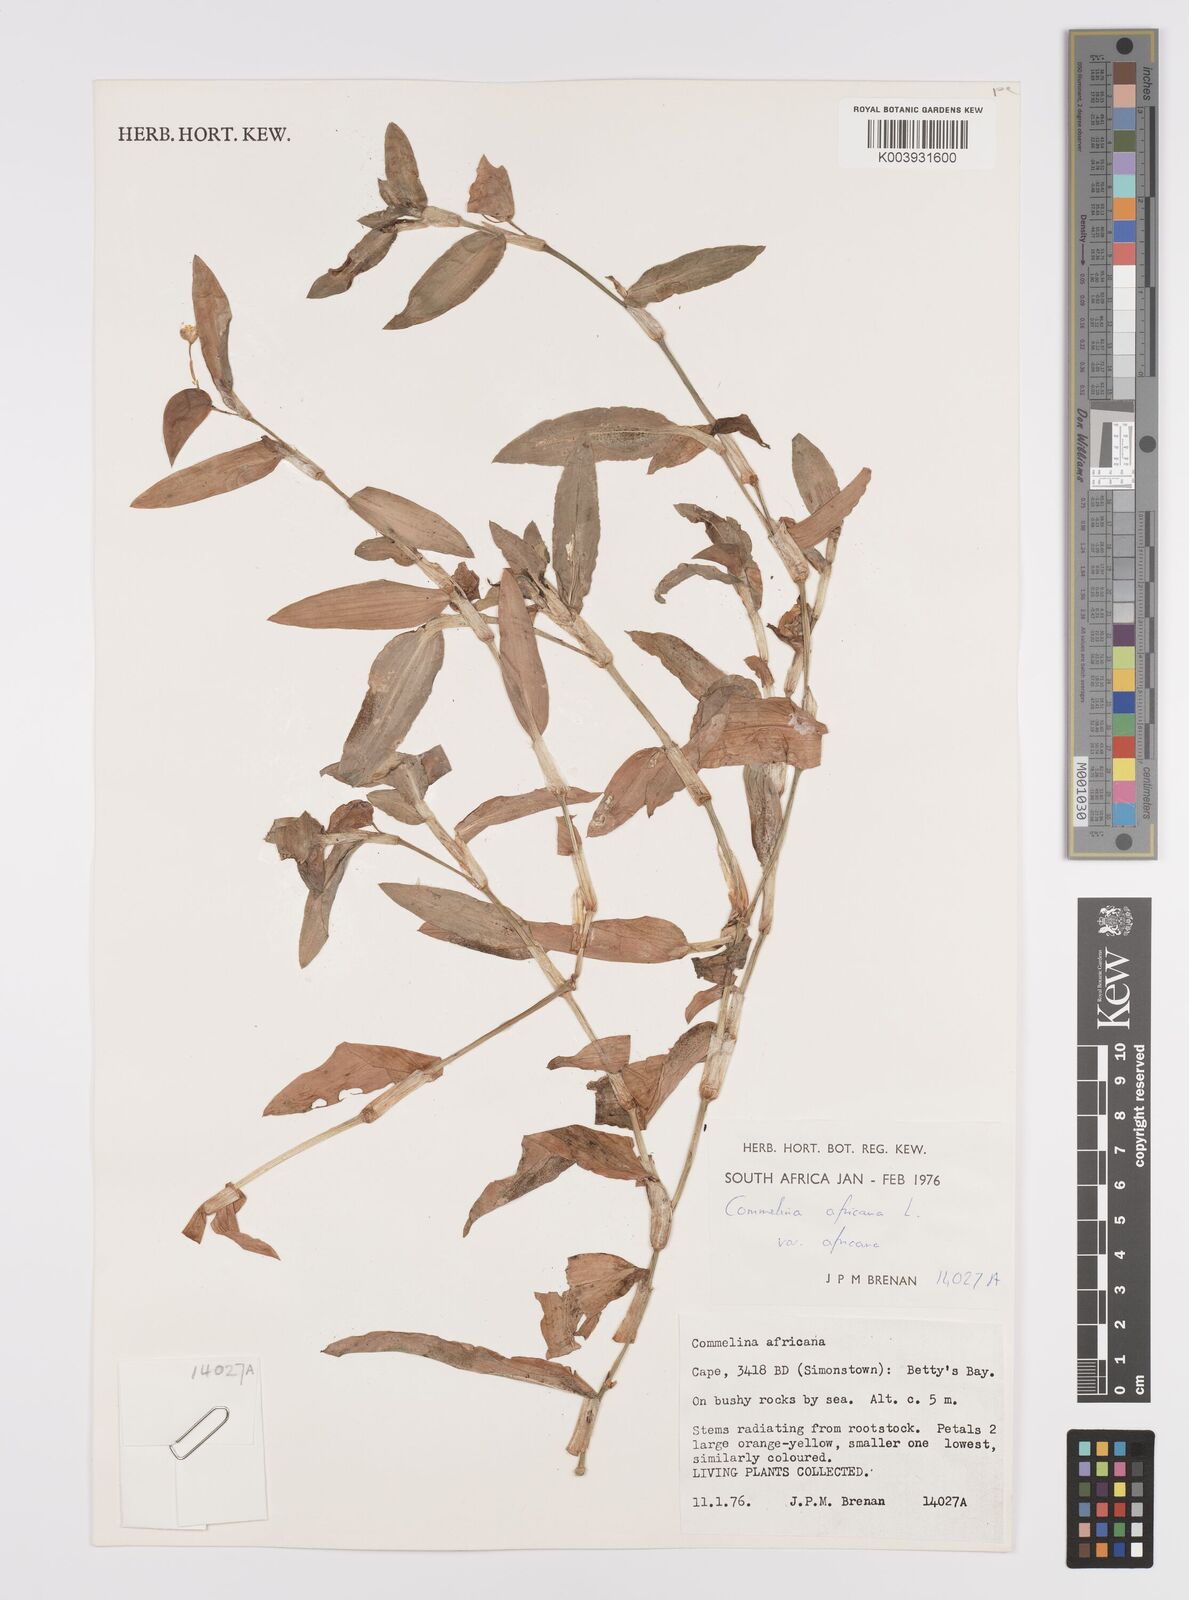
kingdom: Plantae
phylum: Tracheophyta
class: Liliopsida
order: Commelinales
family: Commelinaceae
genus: Commelina
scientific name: Commelina africana
